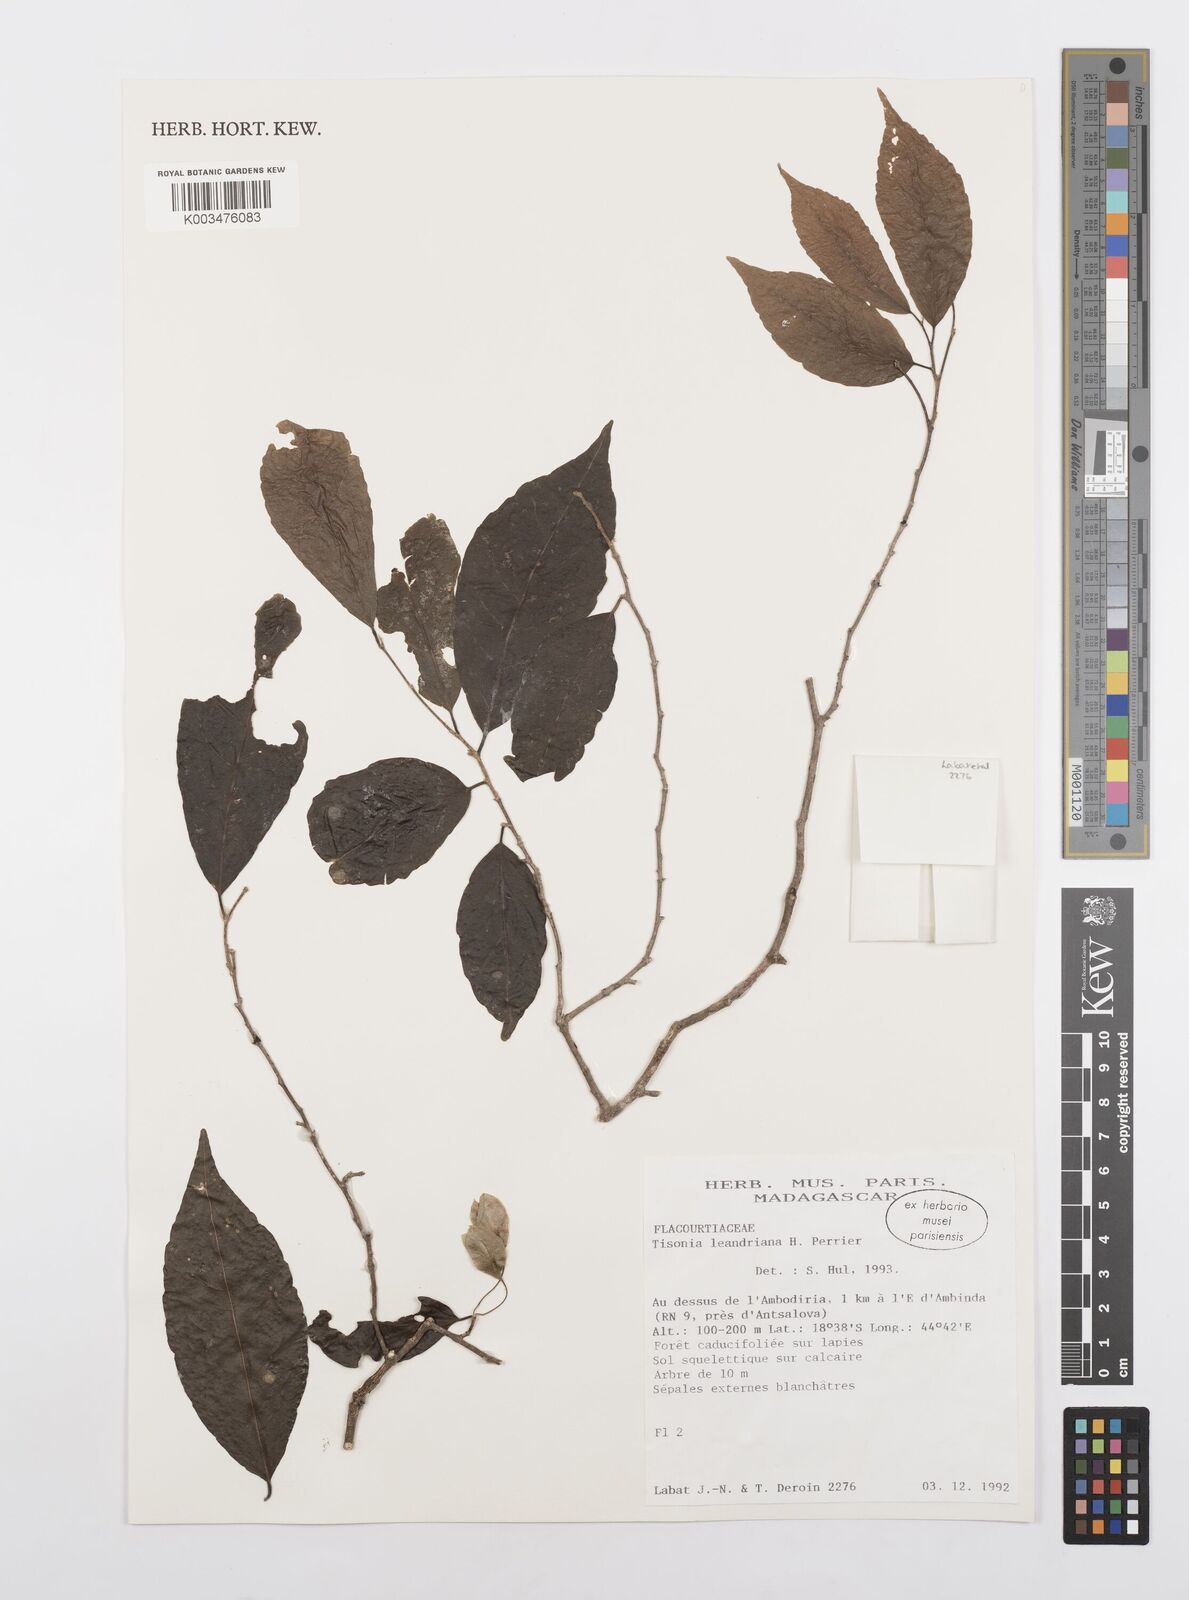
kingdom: Plantae
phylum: Tracheophyta
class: Magnoliopsida
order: Malpighiales
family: Salicaceae
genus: Tisonia
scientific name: Tisonia leandriana
